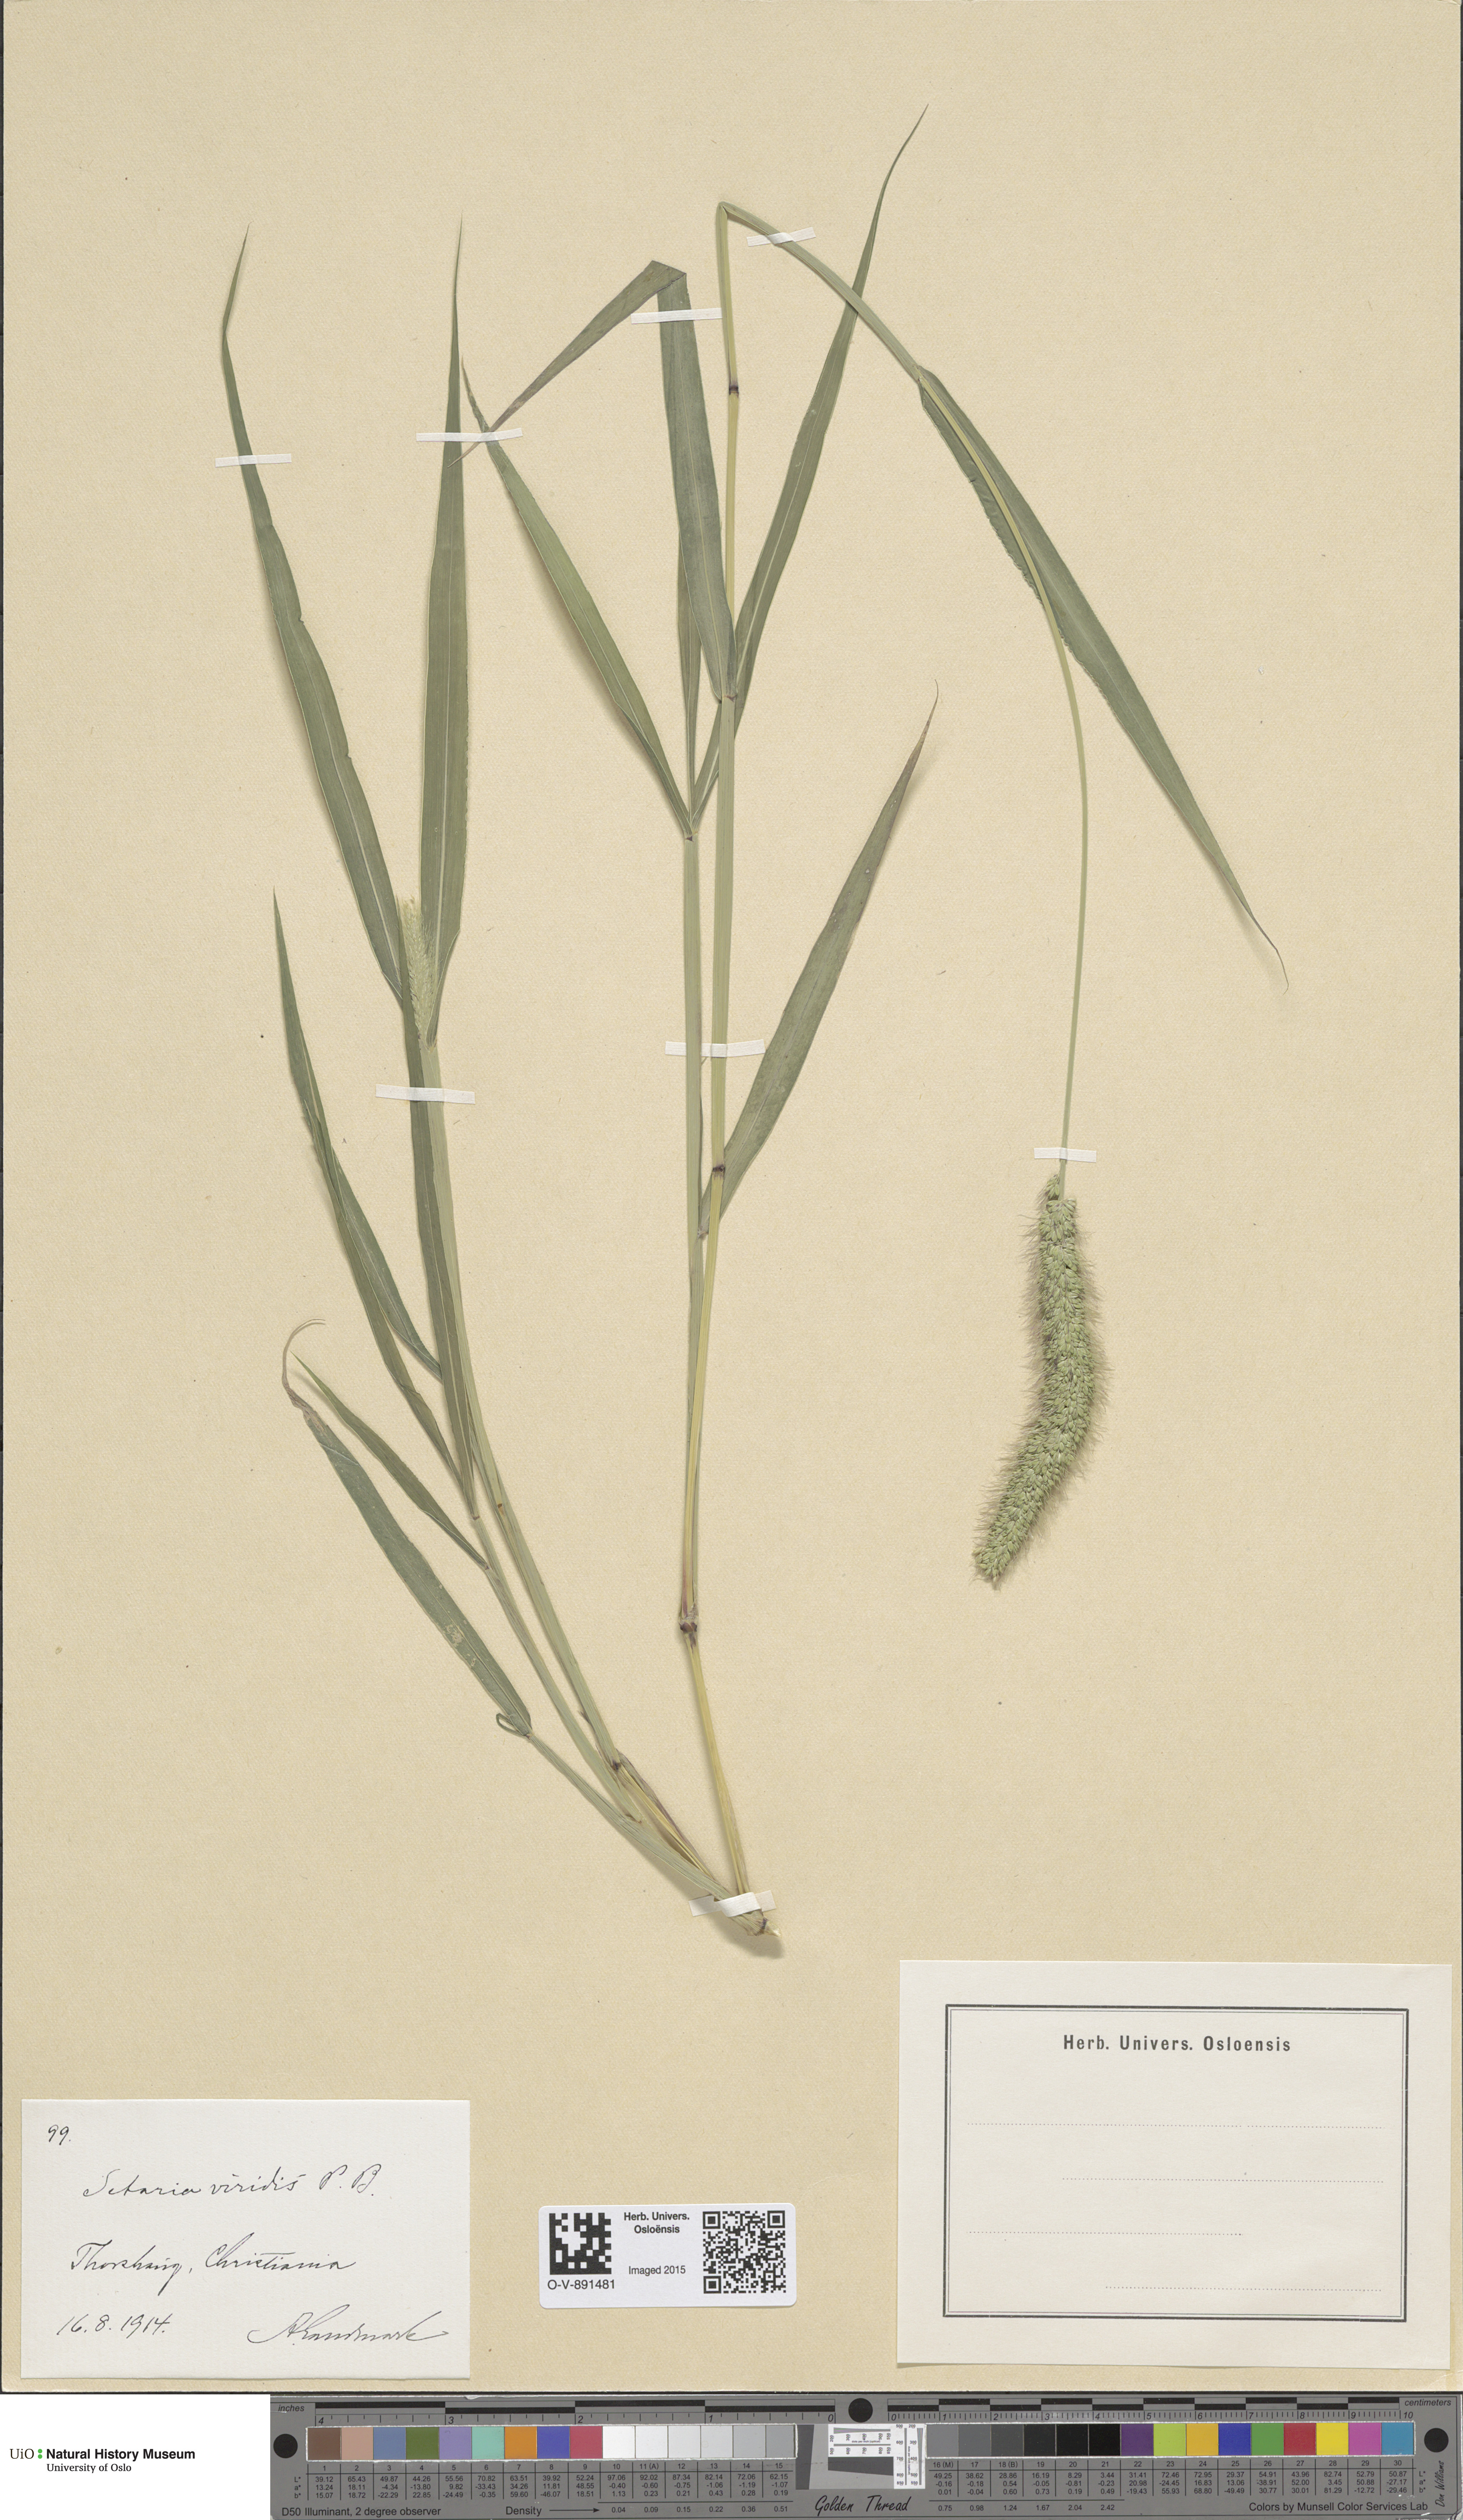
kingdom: Plantae
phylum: Tracheophyta
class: Liliopsida
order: Poales
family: Poaceae
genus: Setaria
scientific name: Setaria viridis
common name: Green bristlegrass
